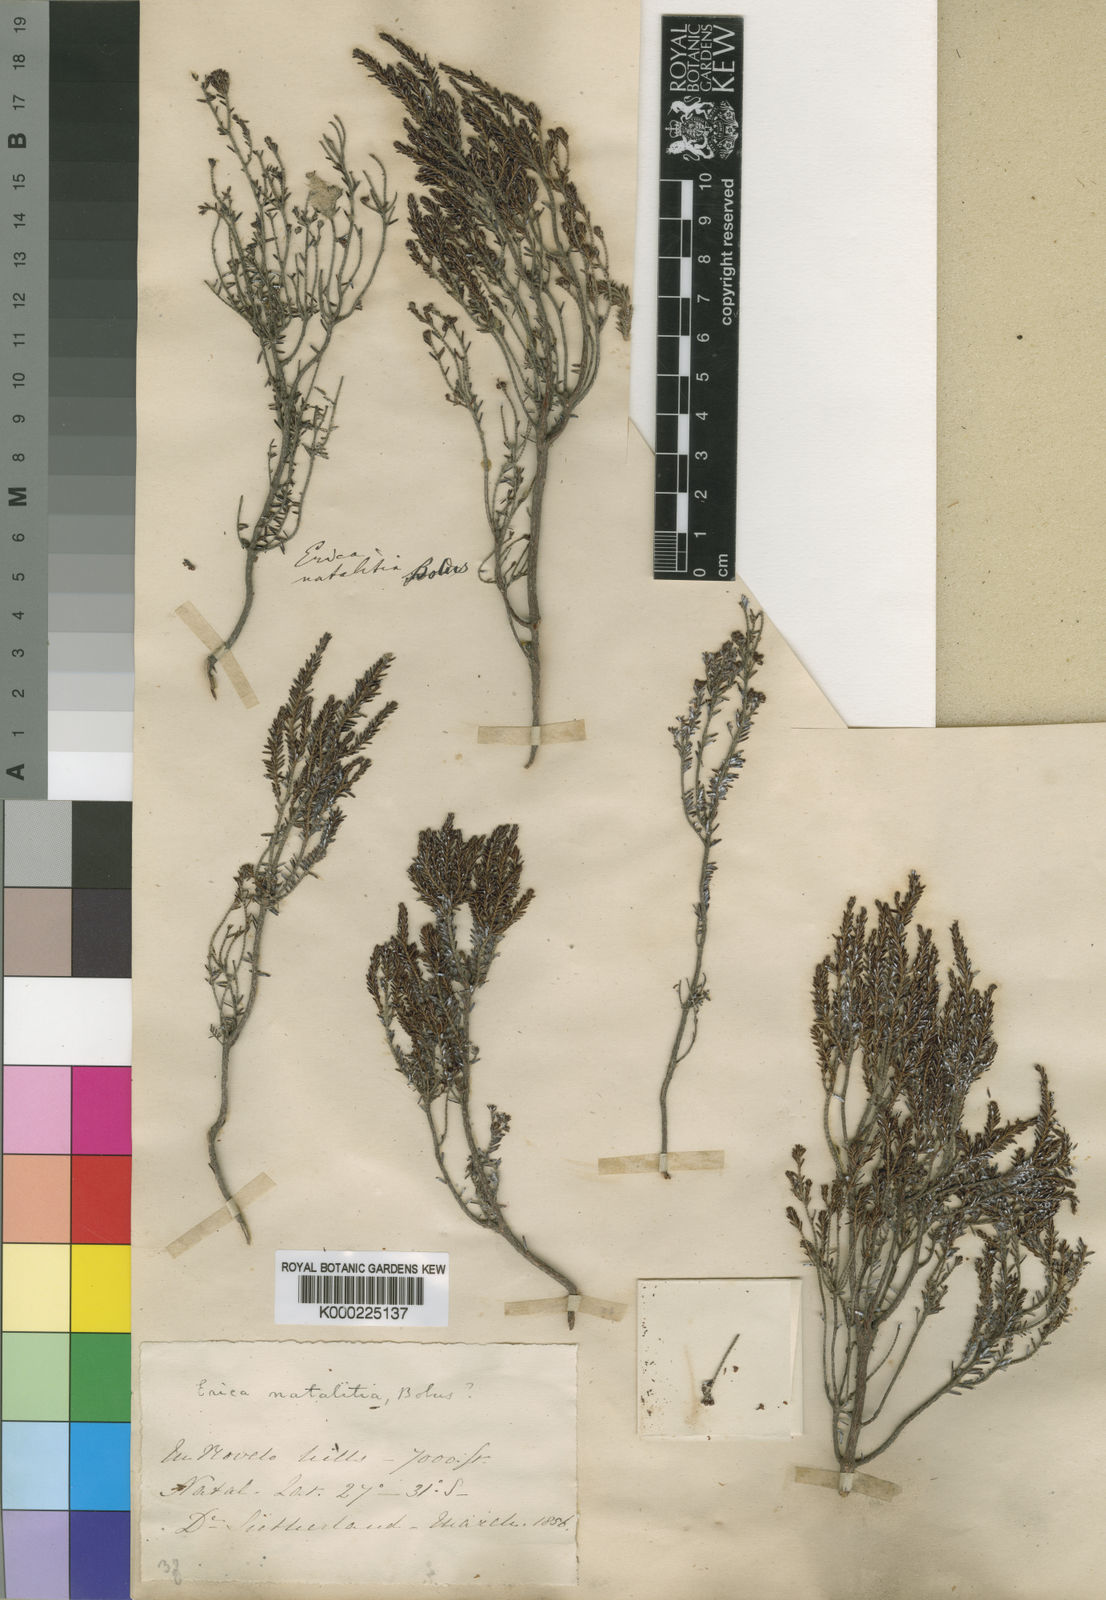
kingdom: Plantae
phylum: Tracheophyta
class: Magnoliopsida
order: Ericales
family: Ericaceae
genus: Erica
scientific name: Erica natalitia
